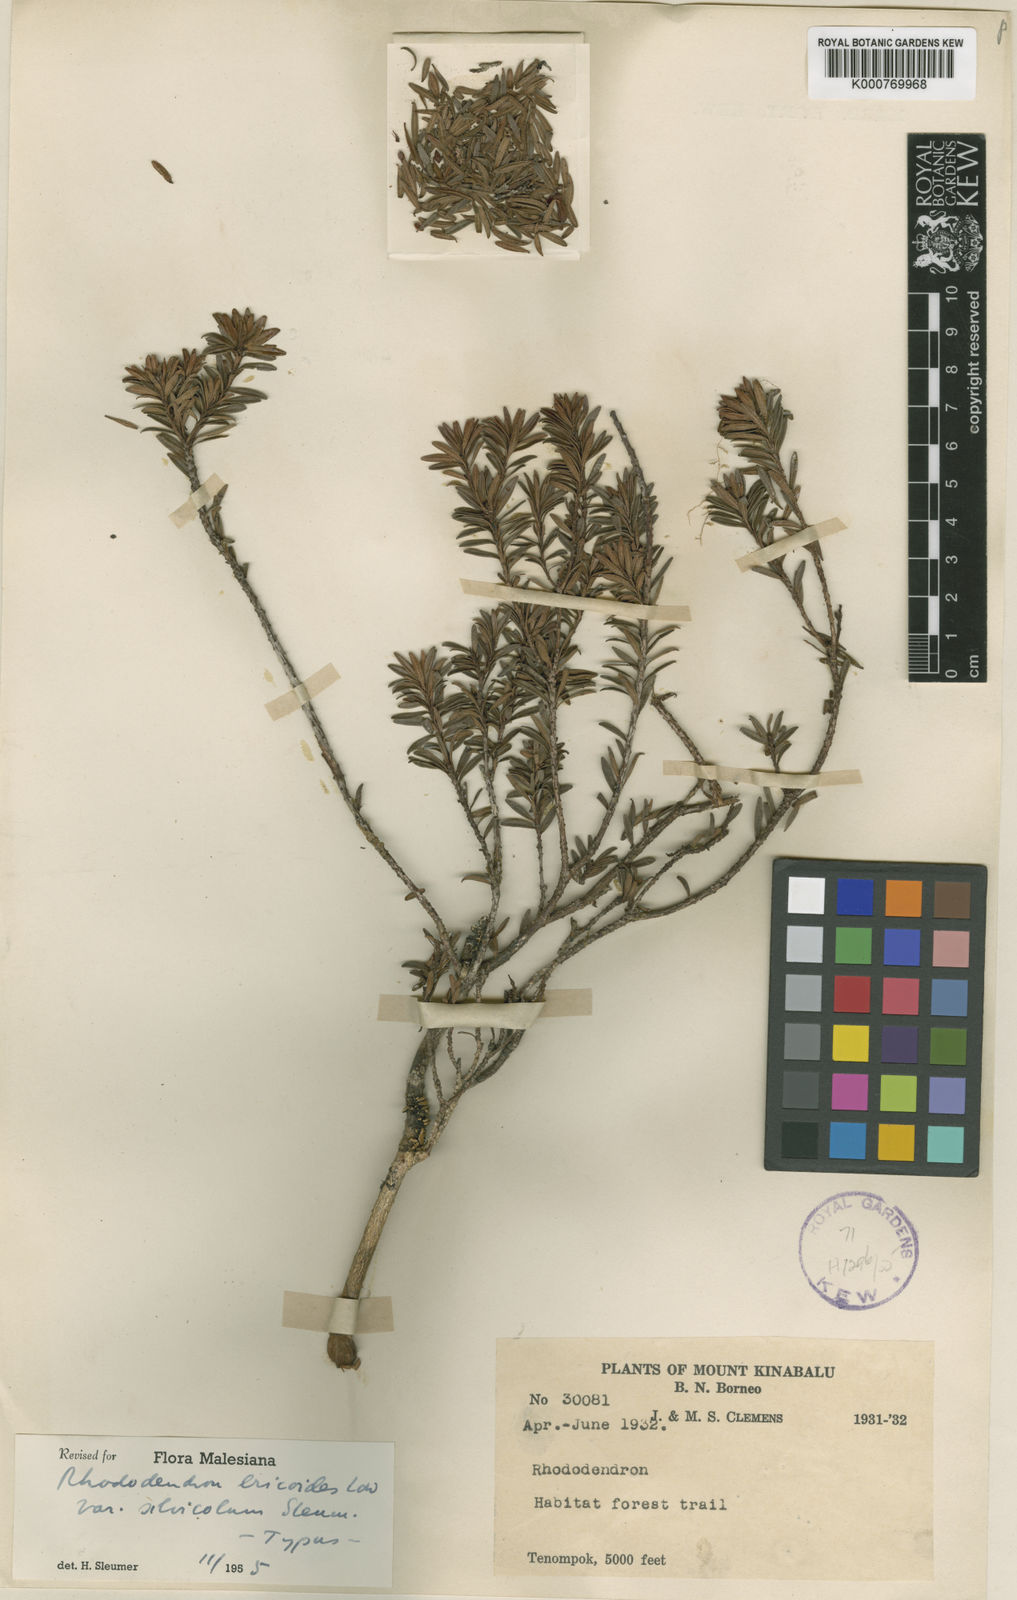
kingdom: Plantae
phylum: Tracheophyta
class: Magnoliopsida
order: Ericales
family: Ericaceae
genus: Rhododendron
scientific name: Rhododendron ericoides
